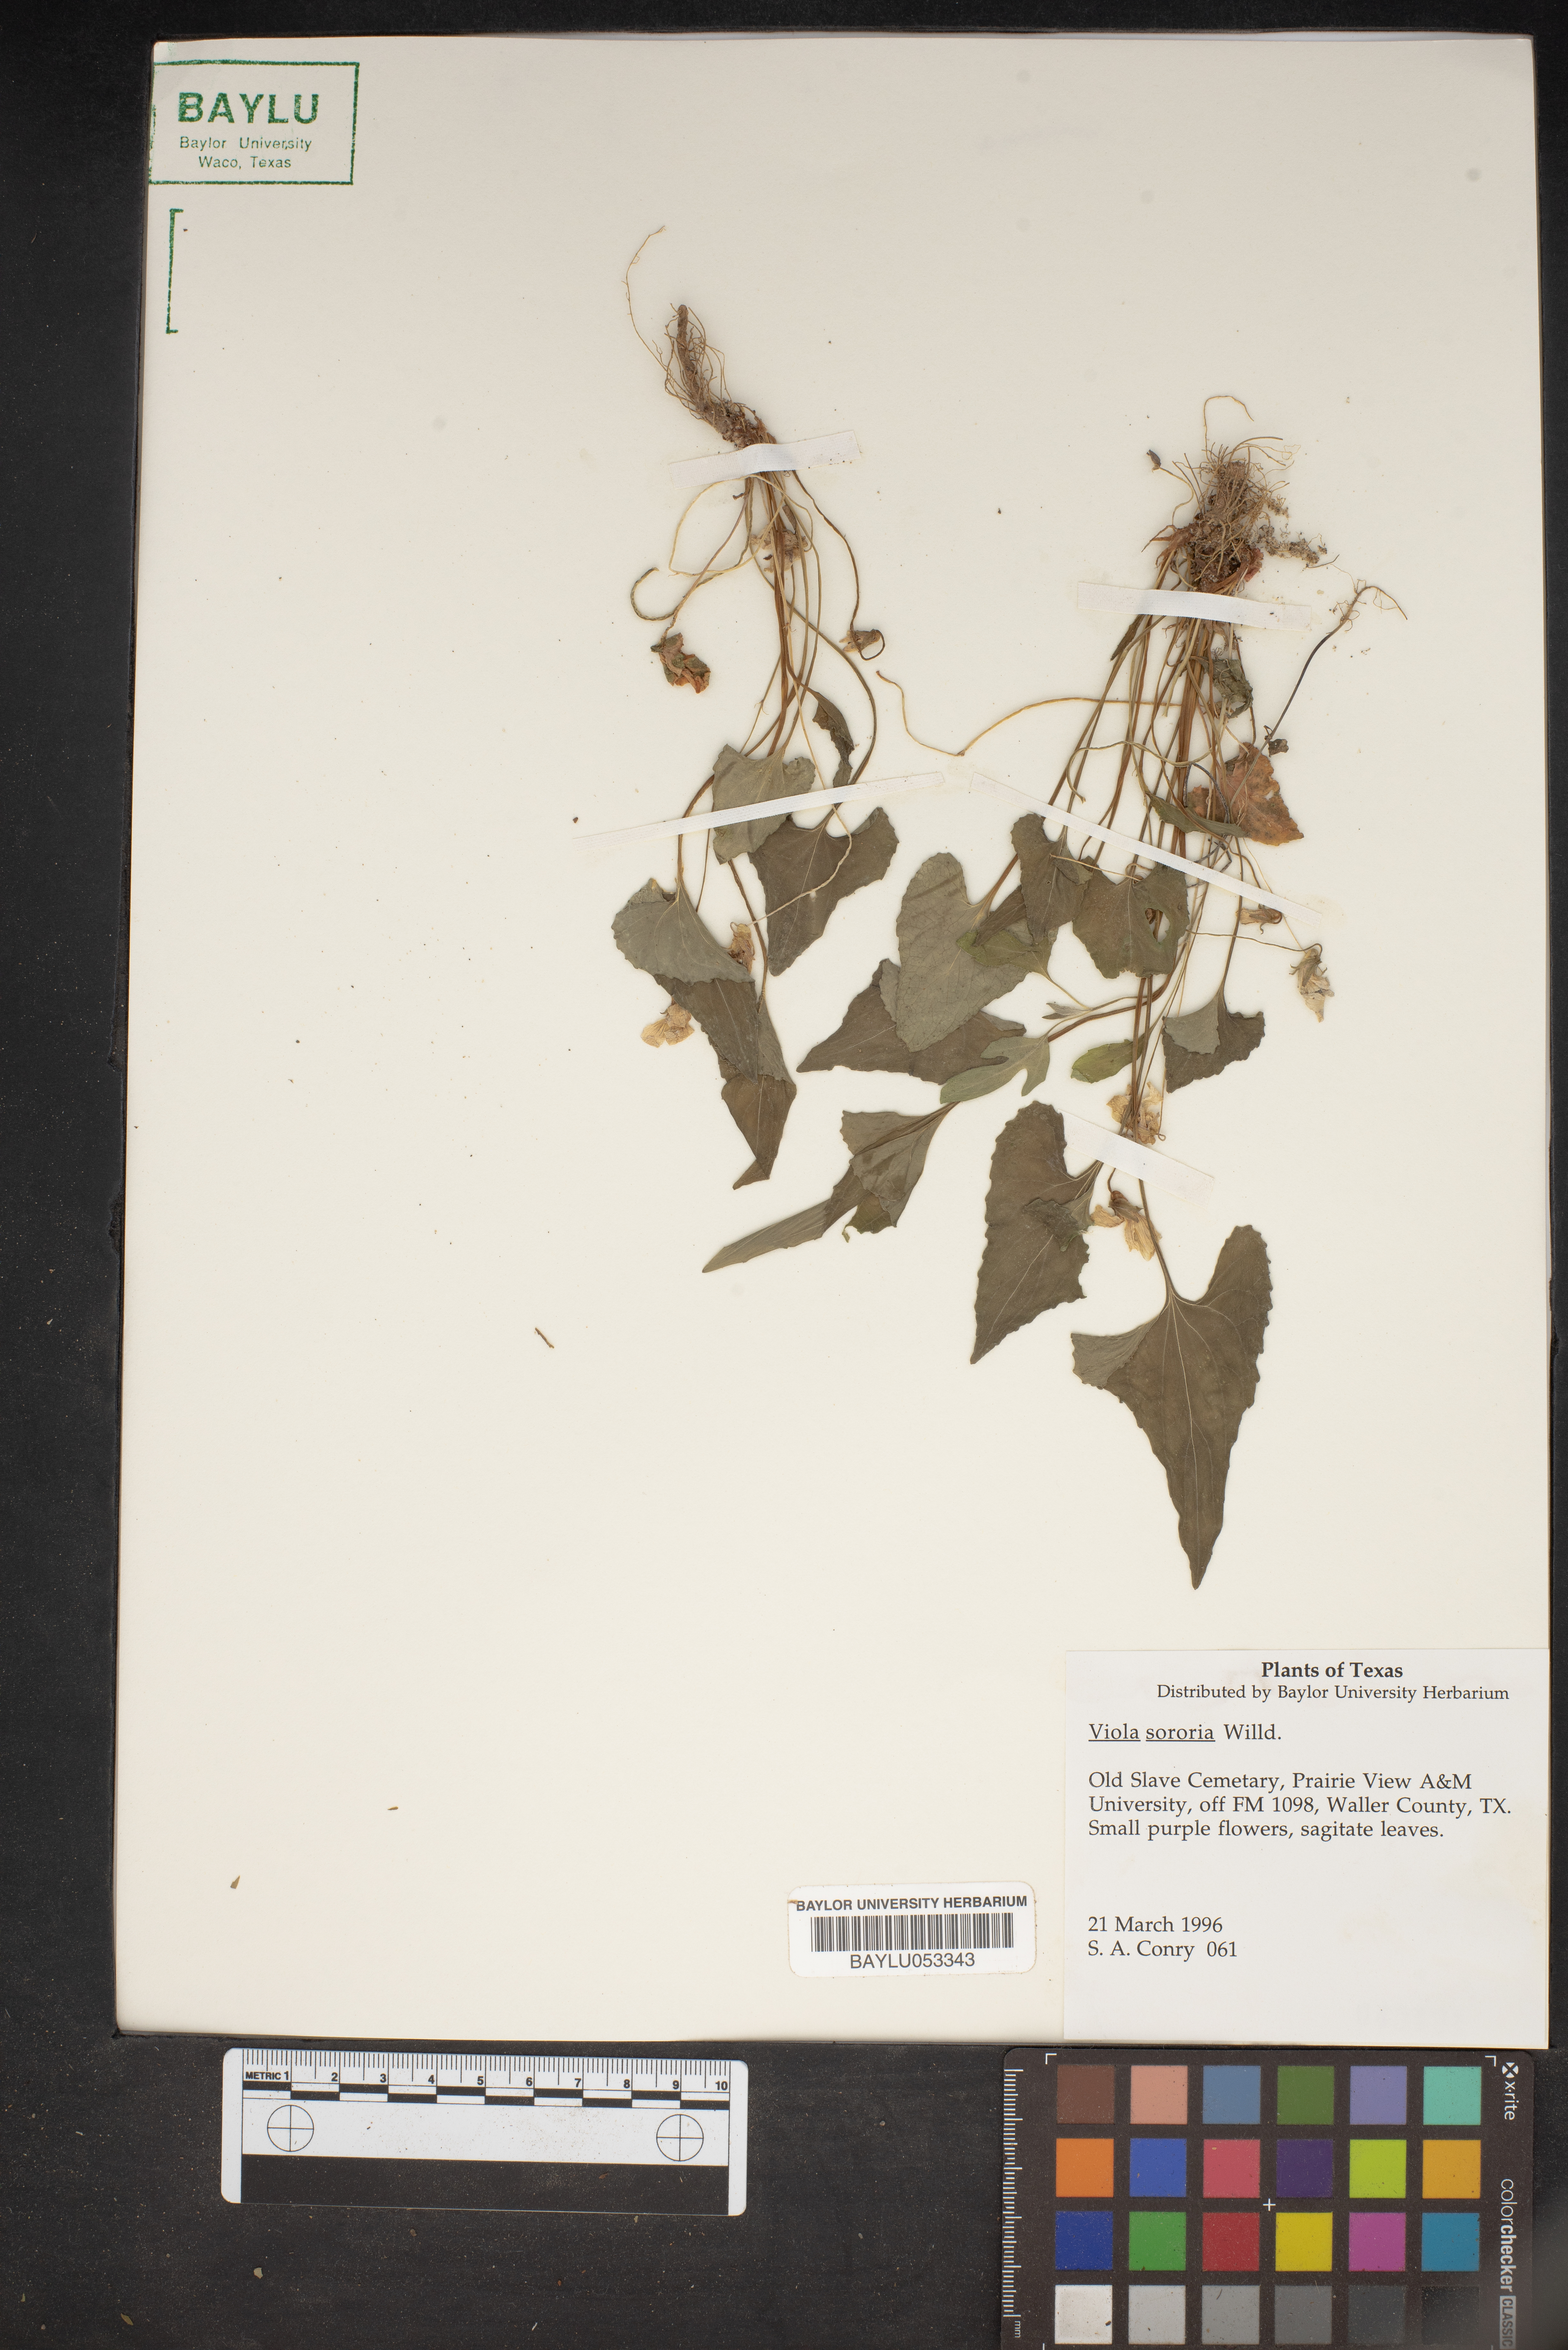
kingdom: Plantae
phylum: Tracheophyta
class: Magnoliopsida
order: Malpighiales
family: Violaceae
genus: Viola
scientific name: Viola sororia
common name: Dooryard violet
